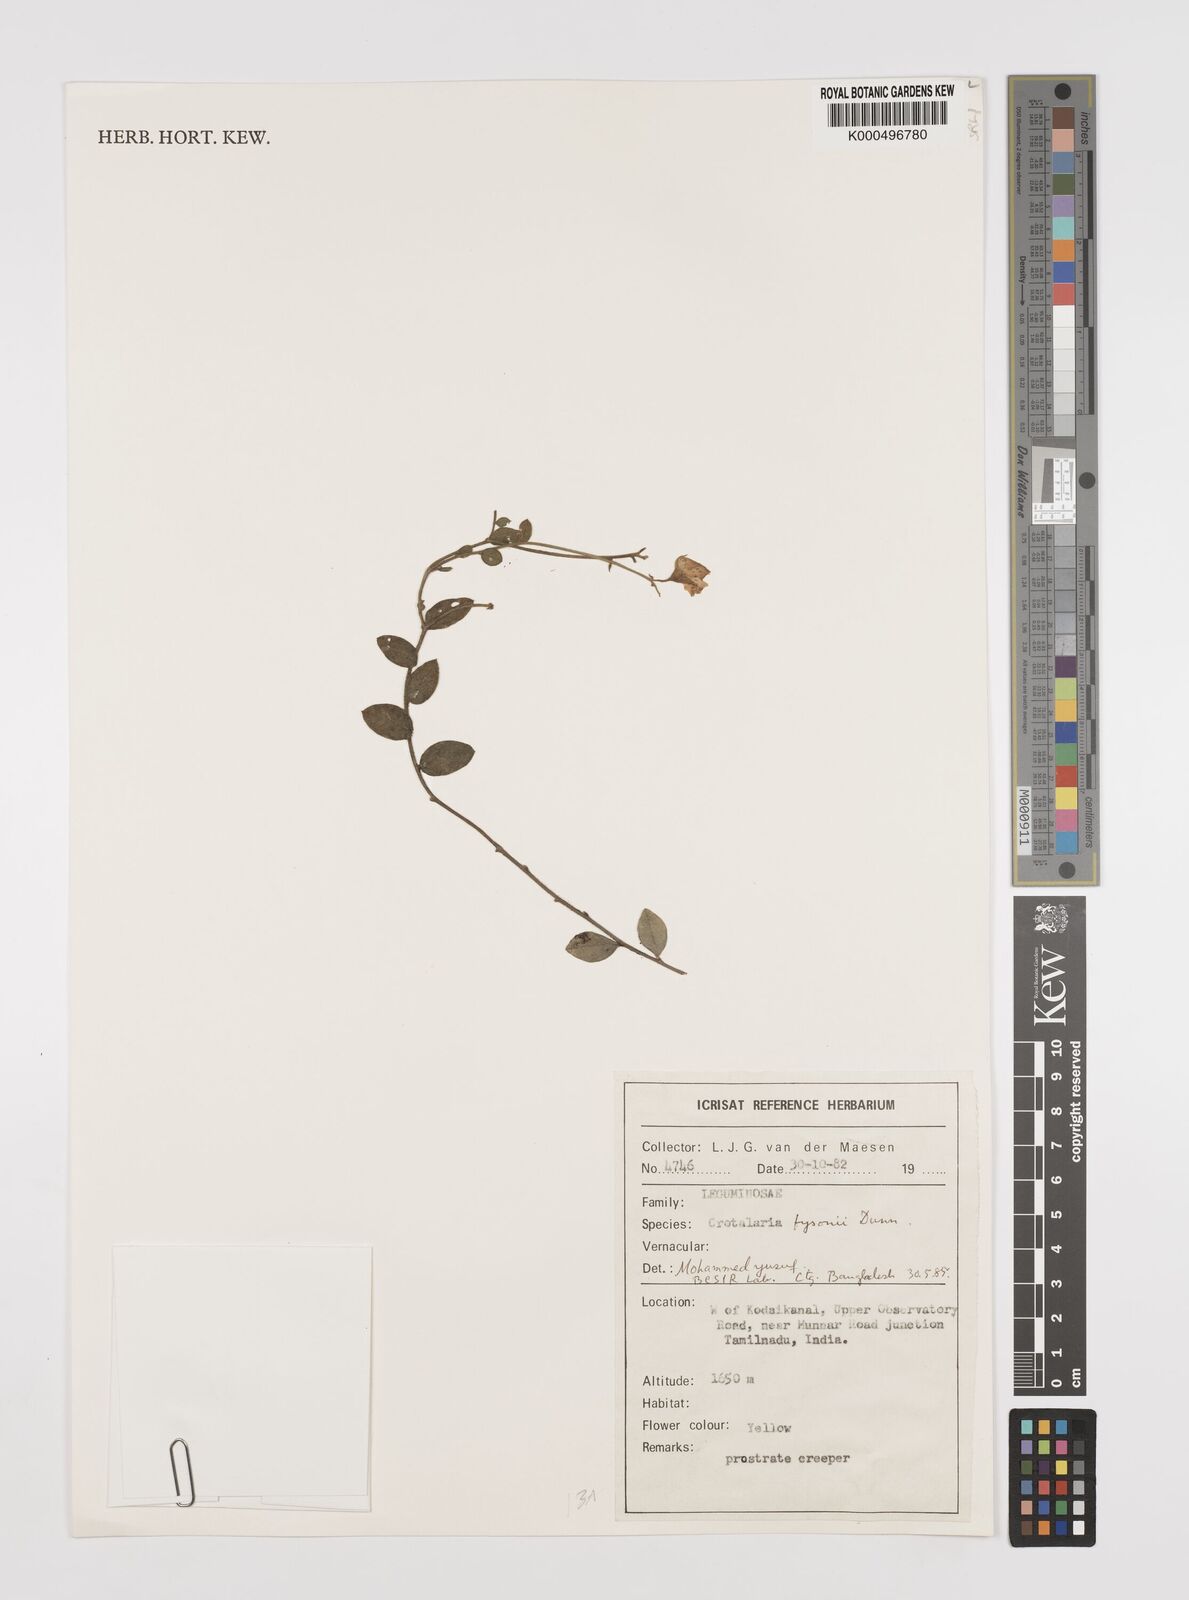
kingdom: Plantae
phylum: Tracheophyta
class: Magnoliopsida
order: Fabales
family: Fabaceae
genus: Crotalaria
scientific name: Crotalaria fysonii
